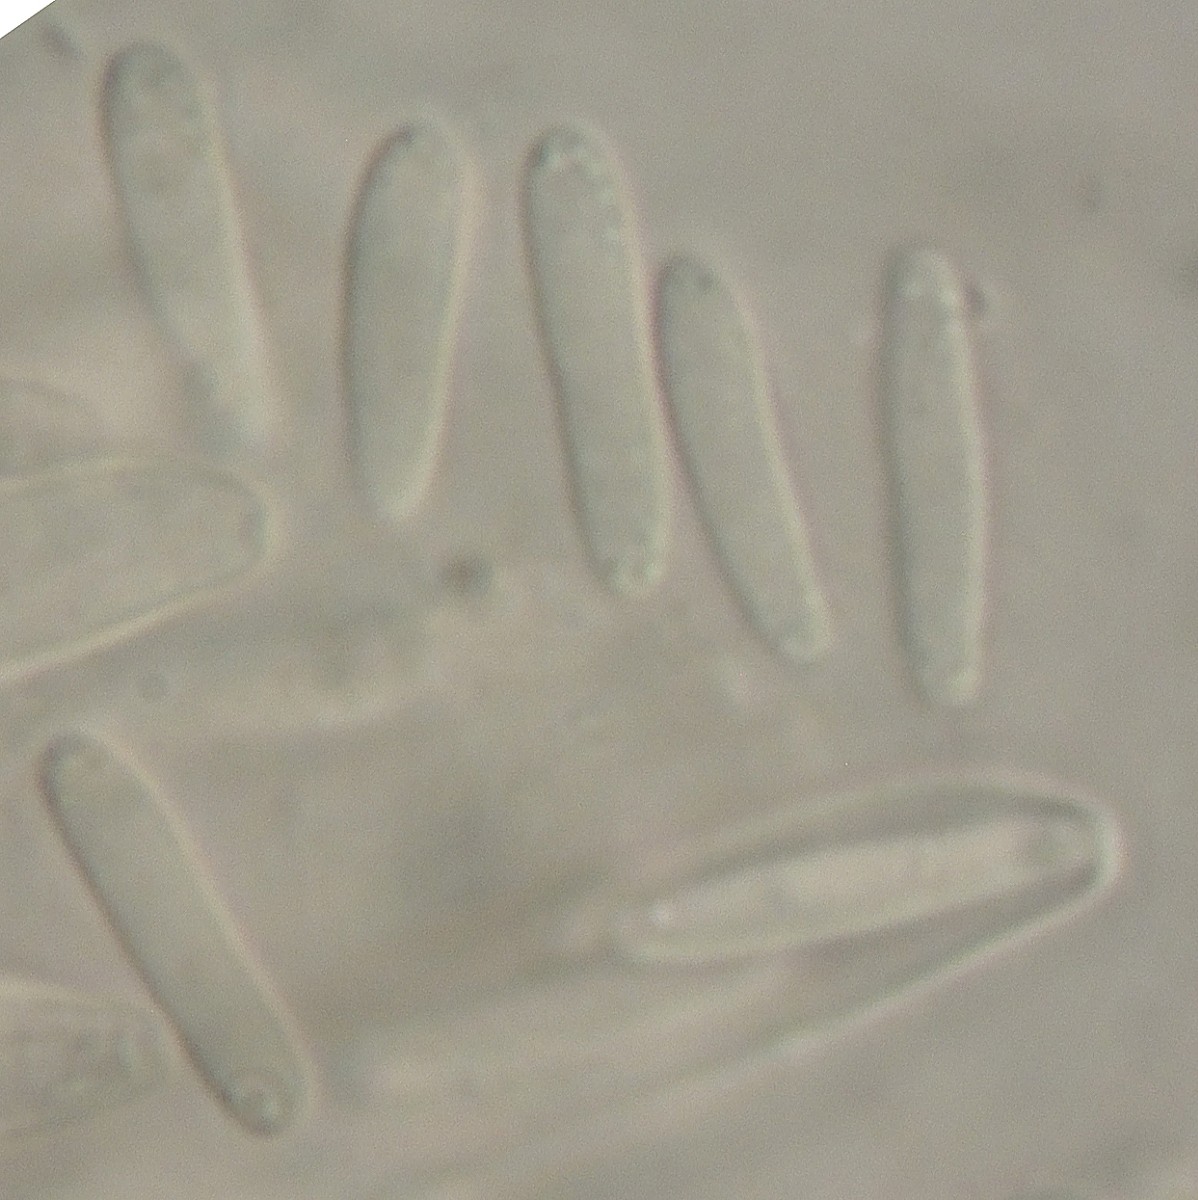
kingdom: Fungi
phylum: Ascomycota
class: Leotiomycetes
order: Helotiales
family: Ploettnerulaceae
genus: Pyrenopeziza
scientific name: Pyrenopeziza
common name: kerneskive
